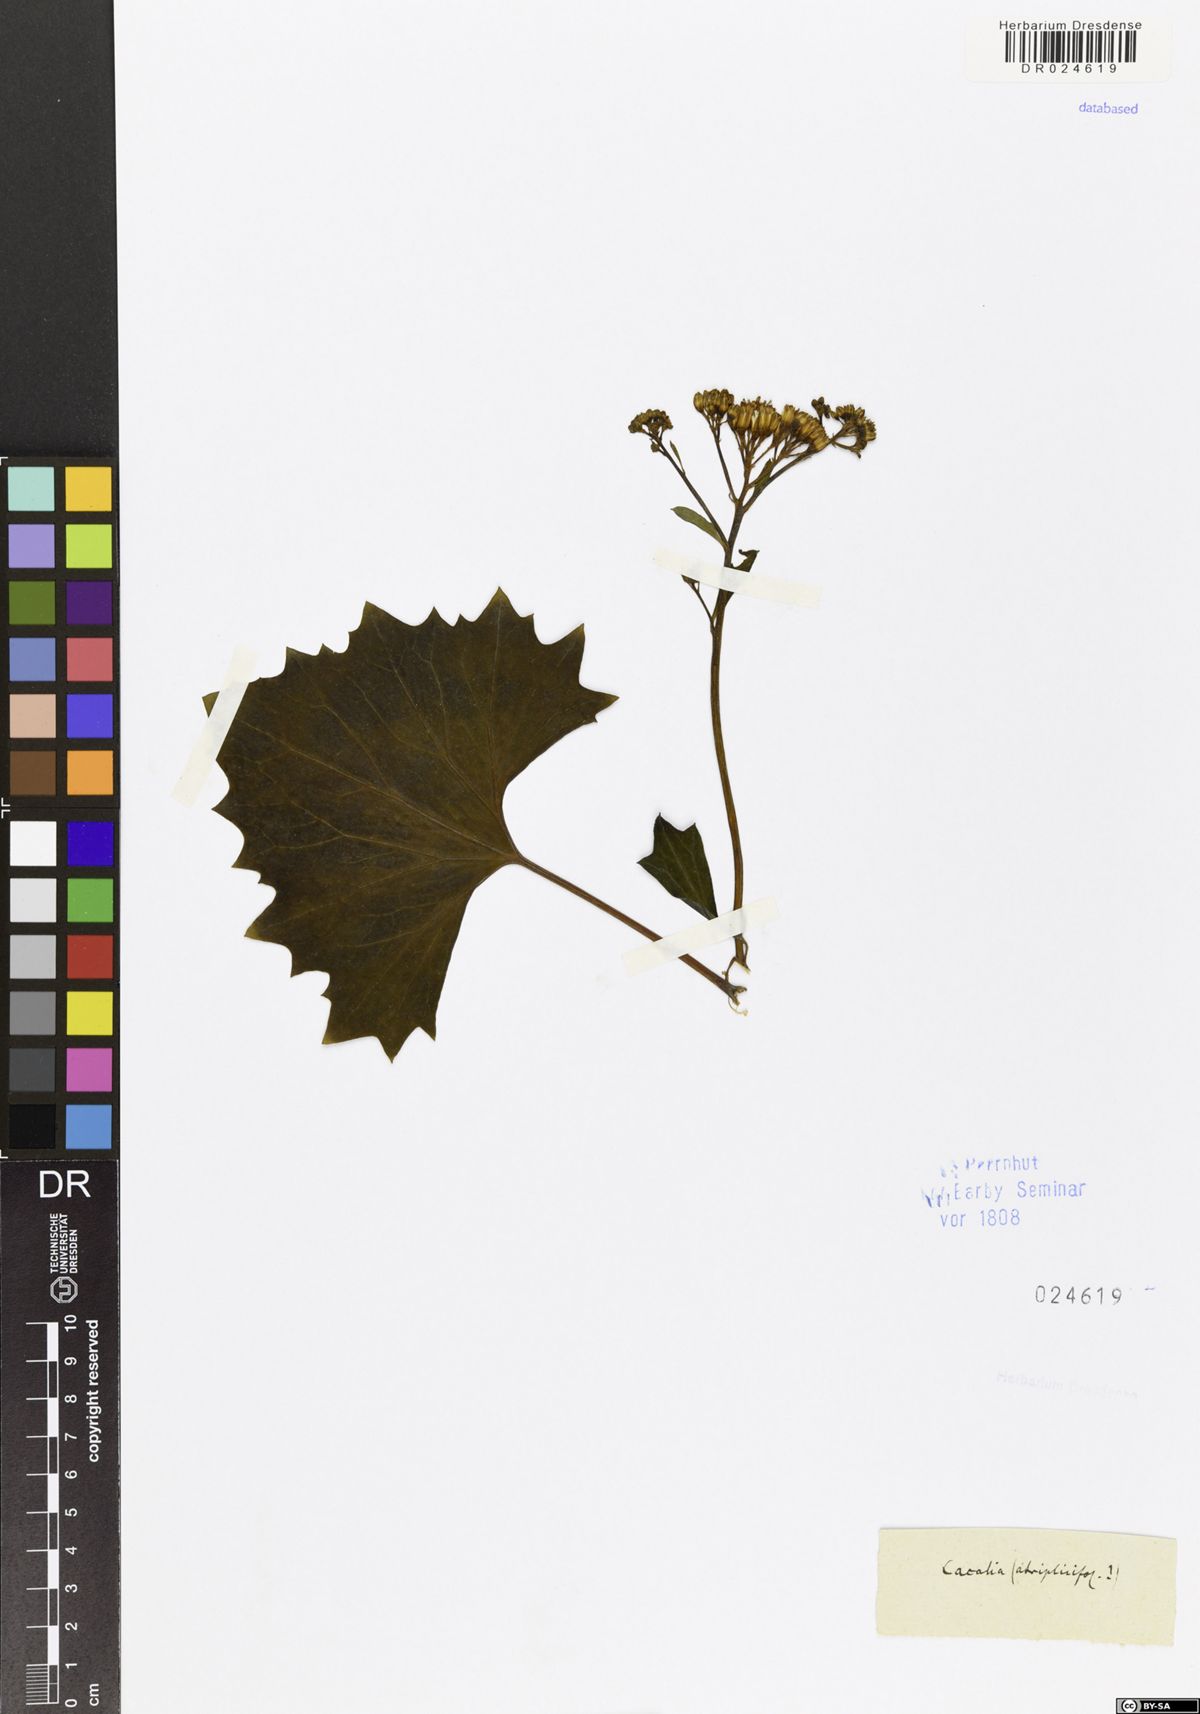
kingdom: Plantae
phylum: Tracheophyta
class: Magnoliopsida
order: Asterales
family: Asteraceae
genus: Arnoglossum
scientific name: Arnoglossum atriplicifolium
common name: Pale indian-plantain
